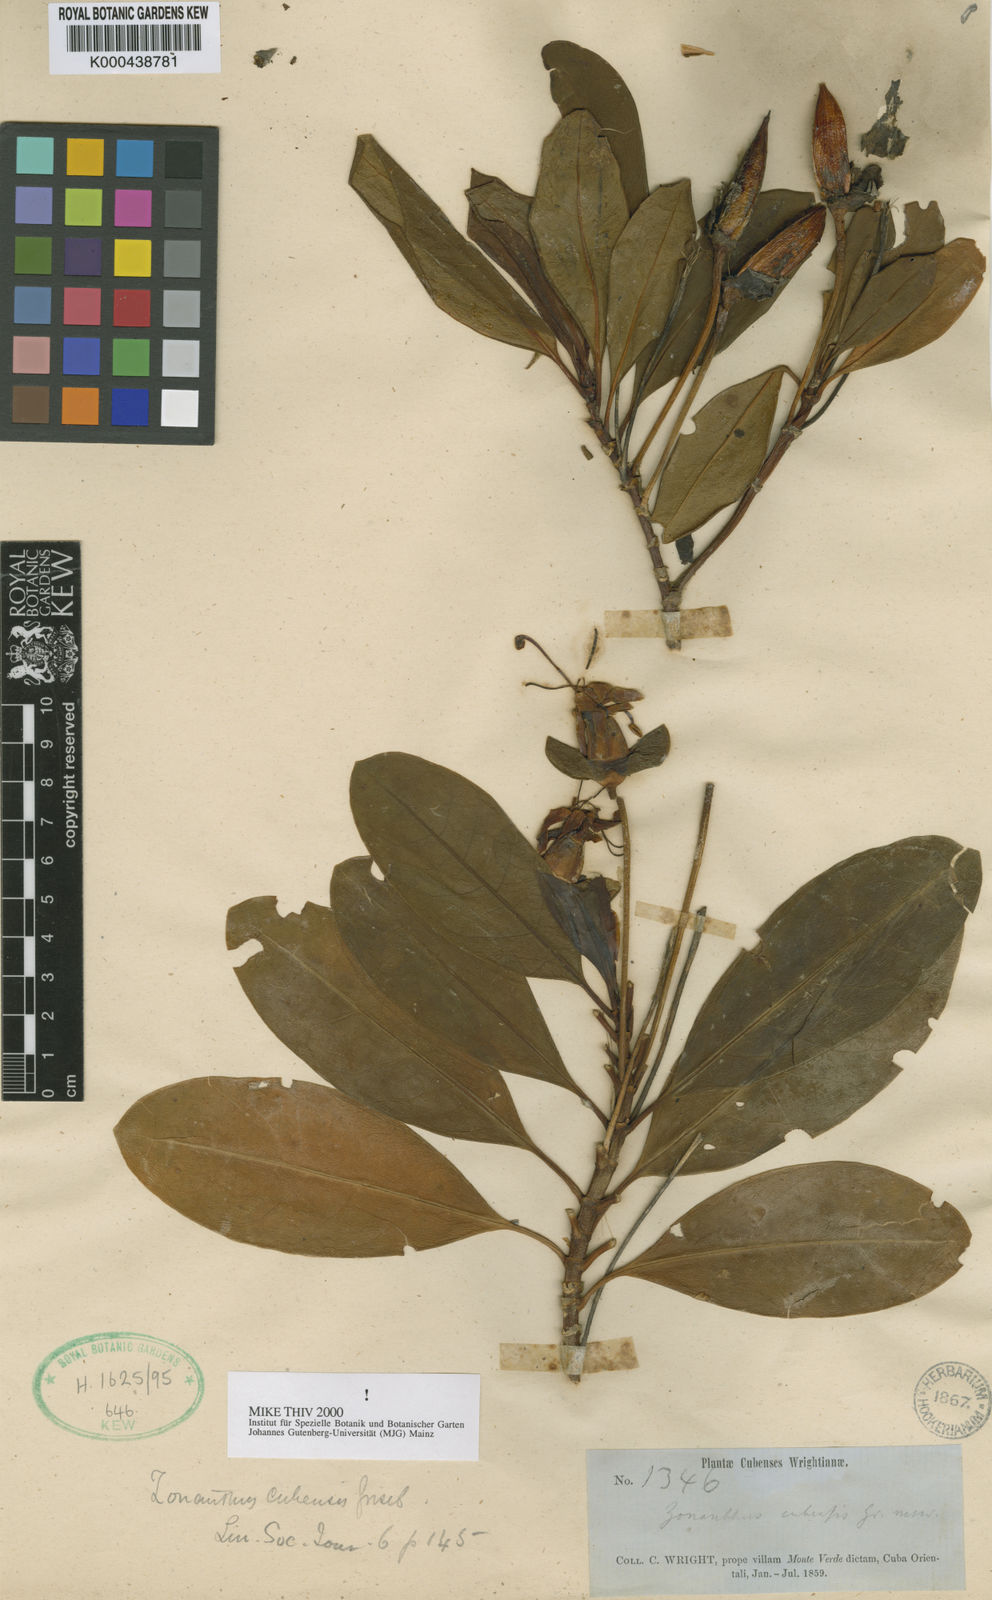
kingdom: Plantae
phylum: Tracheophyta
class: Magnoliopsida
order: Gentianales
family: Gentianaceae
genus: Zonanthus
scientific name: Zonanthus cubensis
